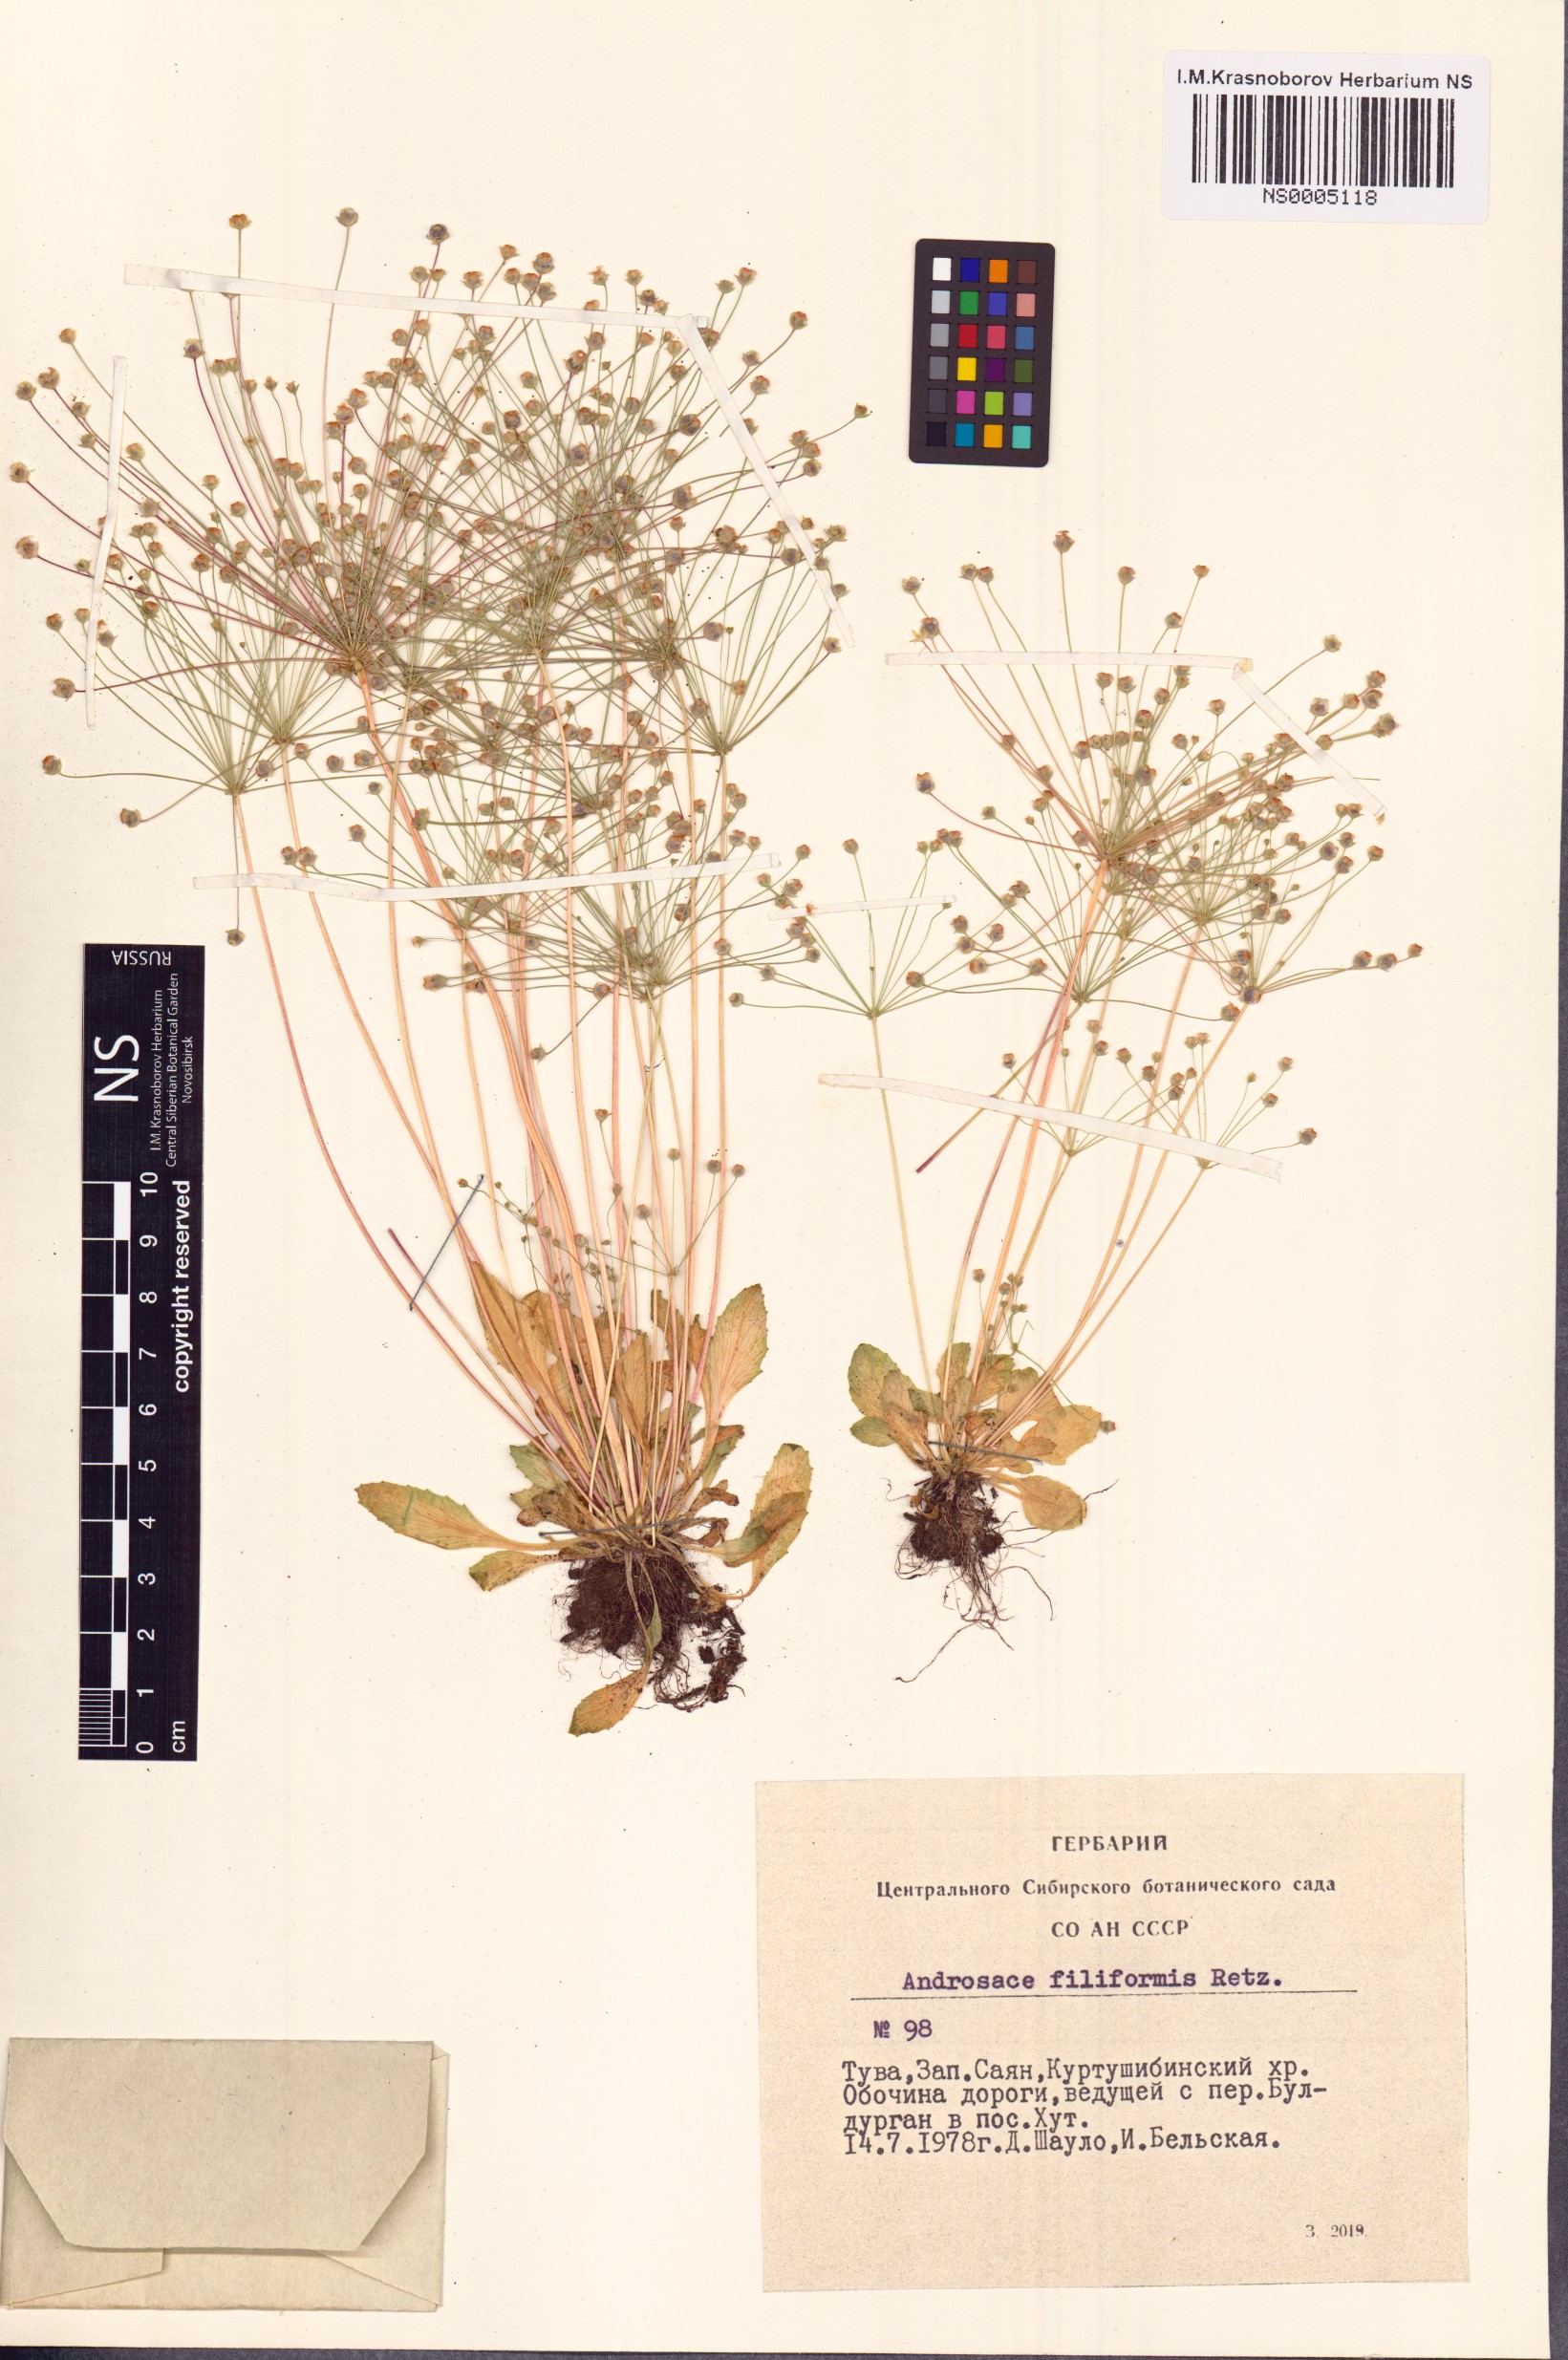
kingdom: Plantae
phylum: Tracheophyta
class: Magnoliopsida
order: Ericales
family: Primulaceae
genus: Androsace
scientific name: Androsace filiformis
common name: Filiform rock jasmine
